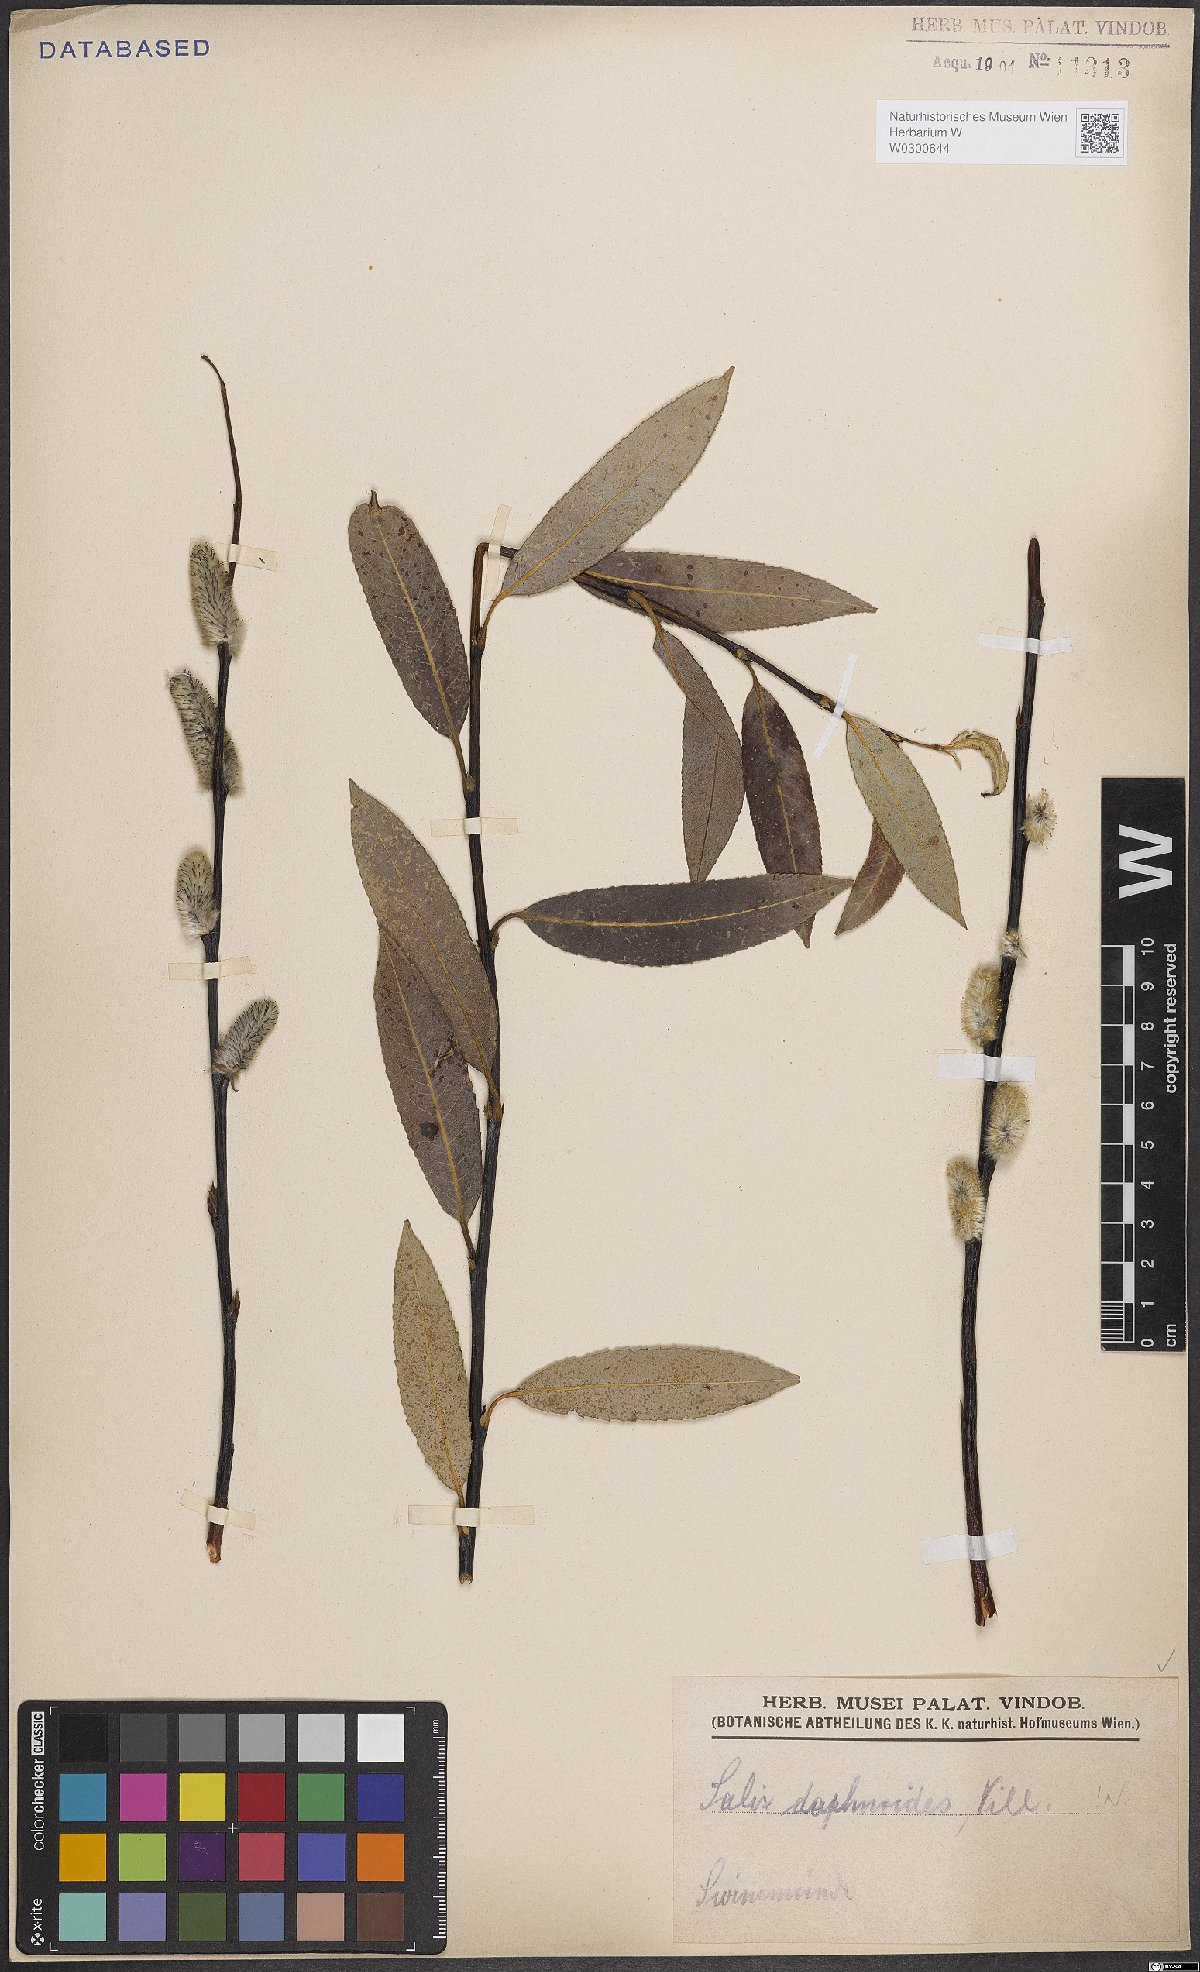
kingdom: Plantae
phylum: Tracheophyta
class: Magnoliopsida
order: Malpighiales
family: Salicaceae
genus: Salix
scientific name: Salix daphnoides
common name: European violet-willow
